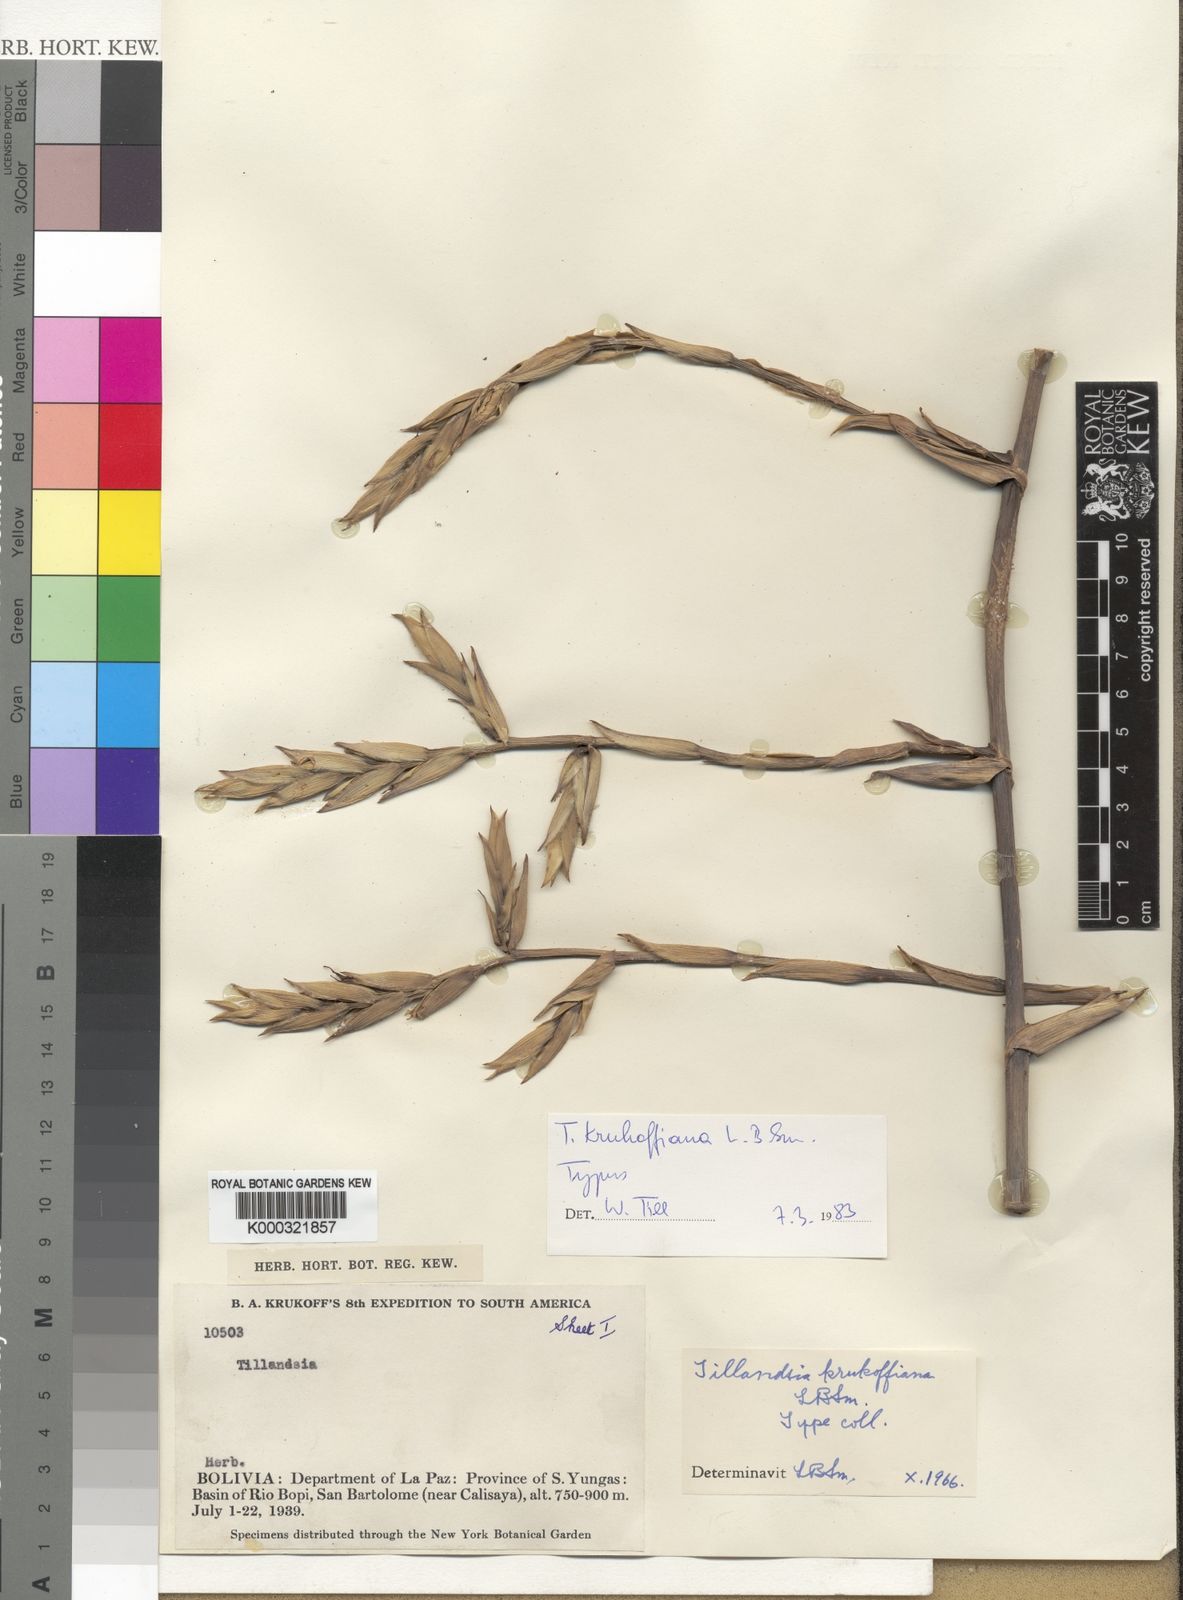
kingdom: Plantae
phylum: Tracheophyta
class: Liliopsida
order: Poales
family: Bromeliaceae
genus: Tillandsia
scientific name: Tillandsia krukoffiana
